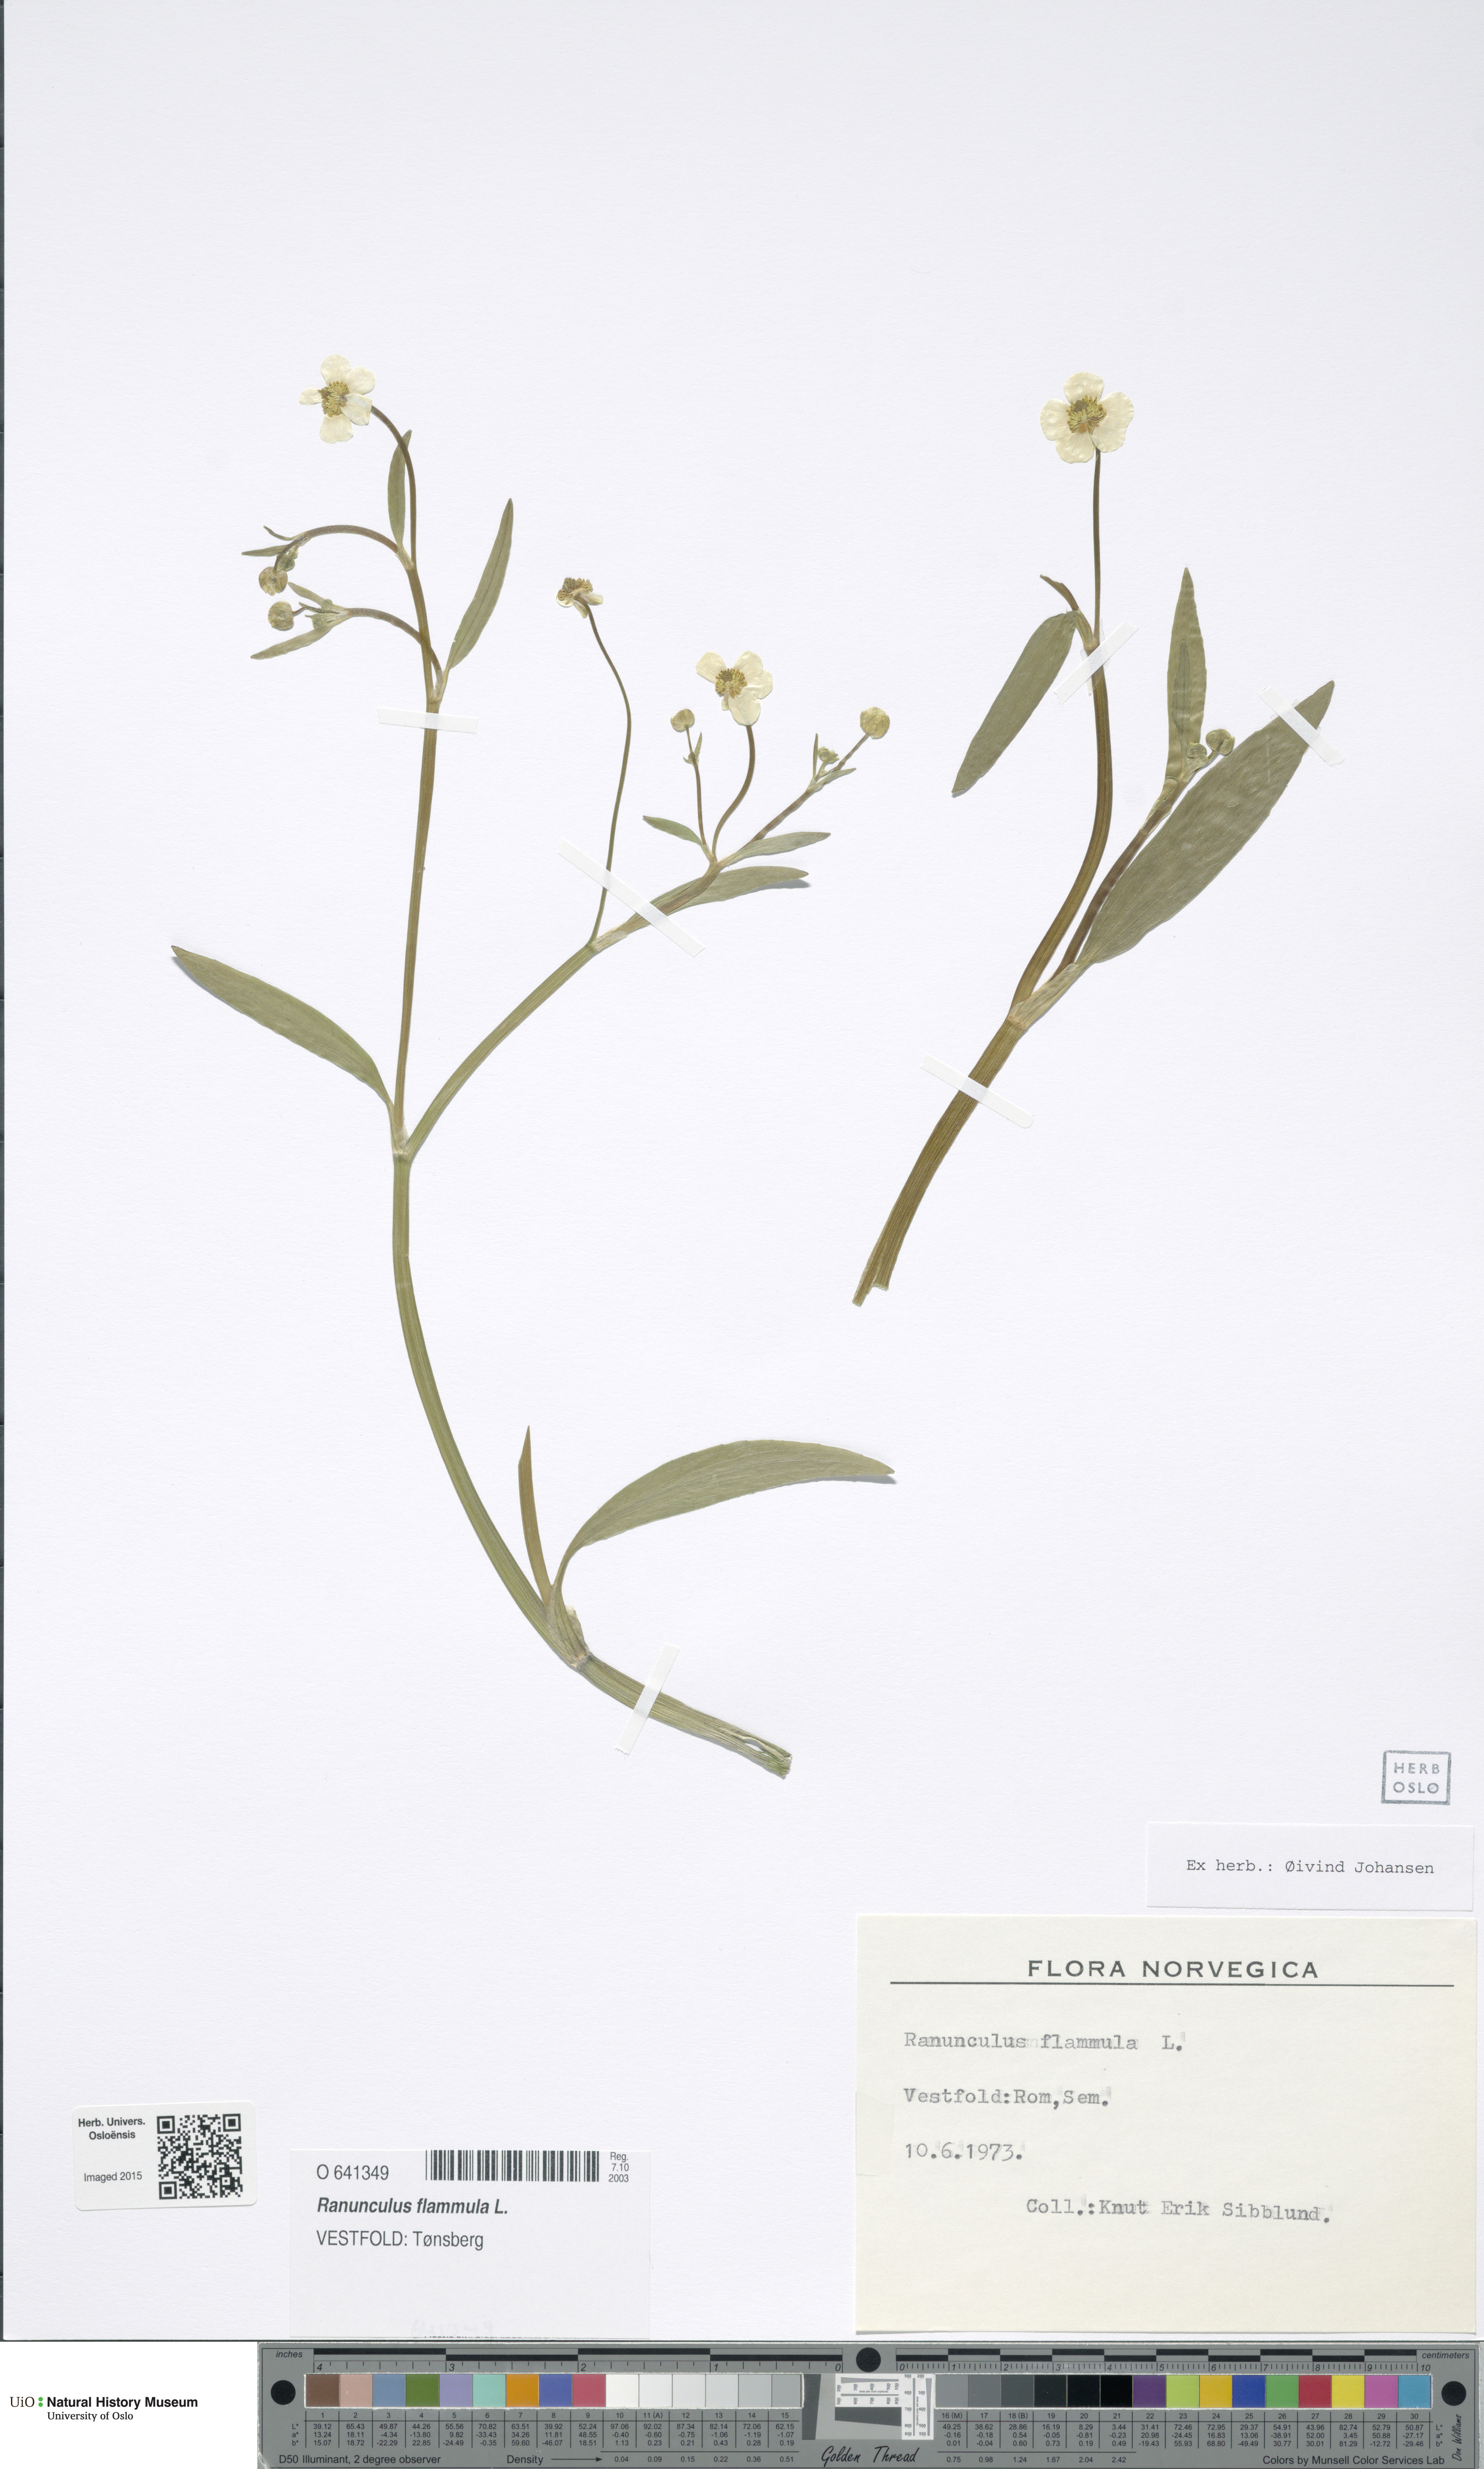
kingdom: Plantae
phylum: Tracheophyta
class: Magnoliopsida
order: Ranunculales
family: Ranunculaceae
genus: Ranunculus
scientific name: Ranunculus flammula
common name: Lesser spearwort
